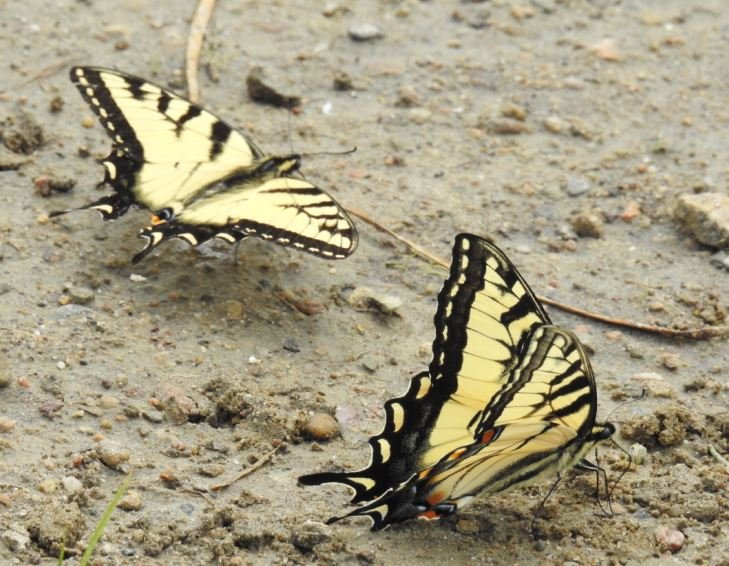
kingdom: Animalia
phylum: Arthropoda
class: Insecta
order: Lepidoptera
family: Papilionidae
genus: Pterourus
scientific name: Pterourus glaucus
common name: Eastern Tiger Swallowtail
